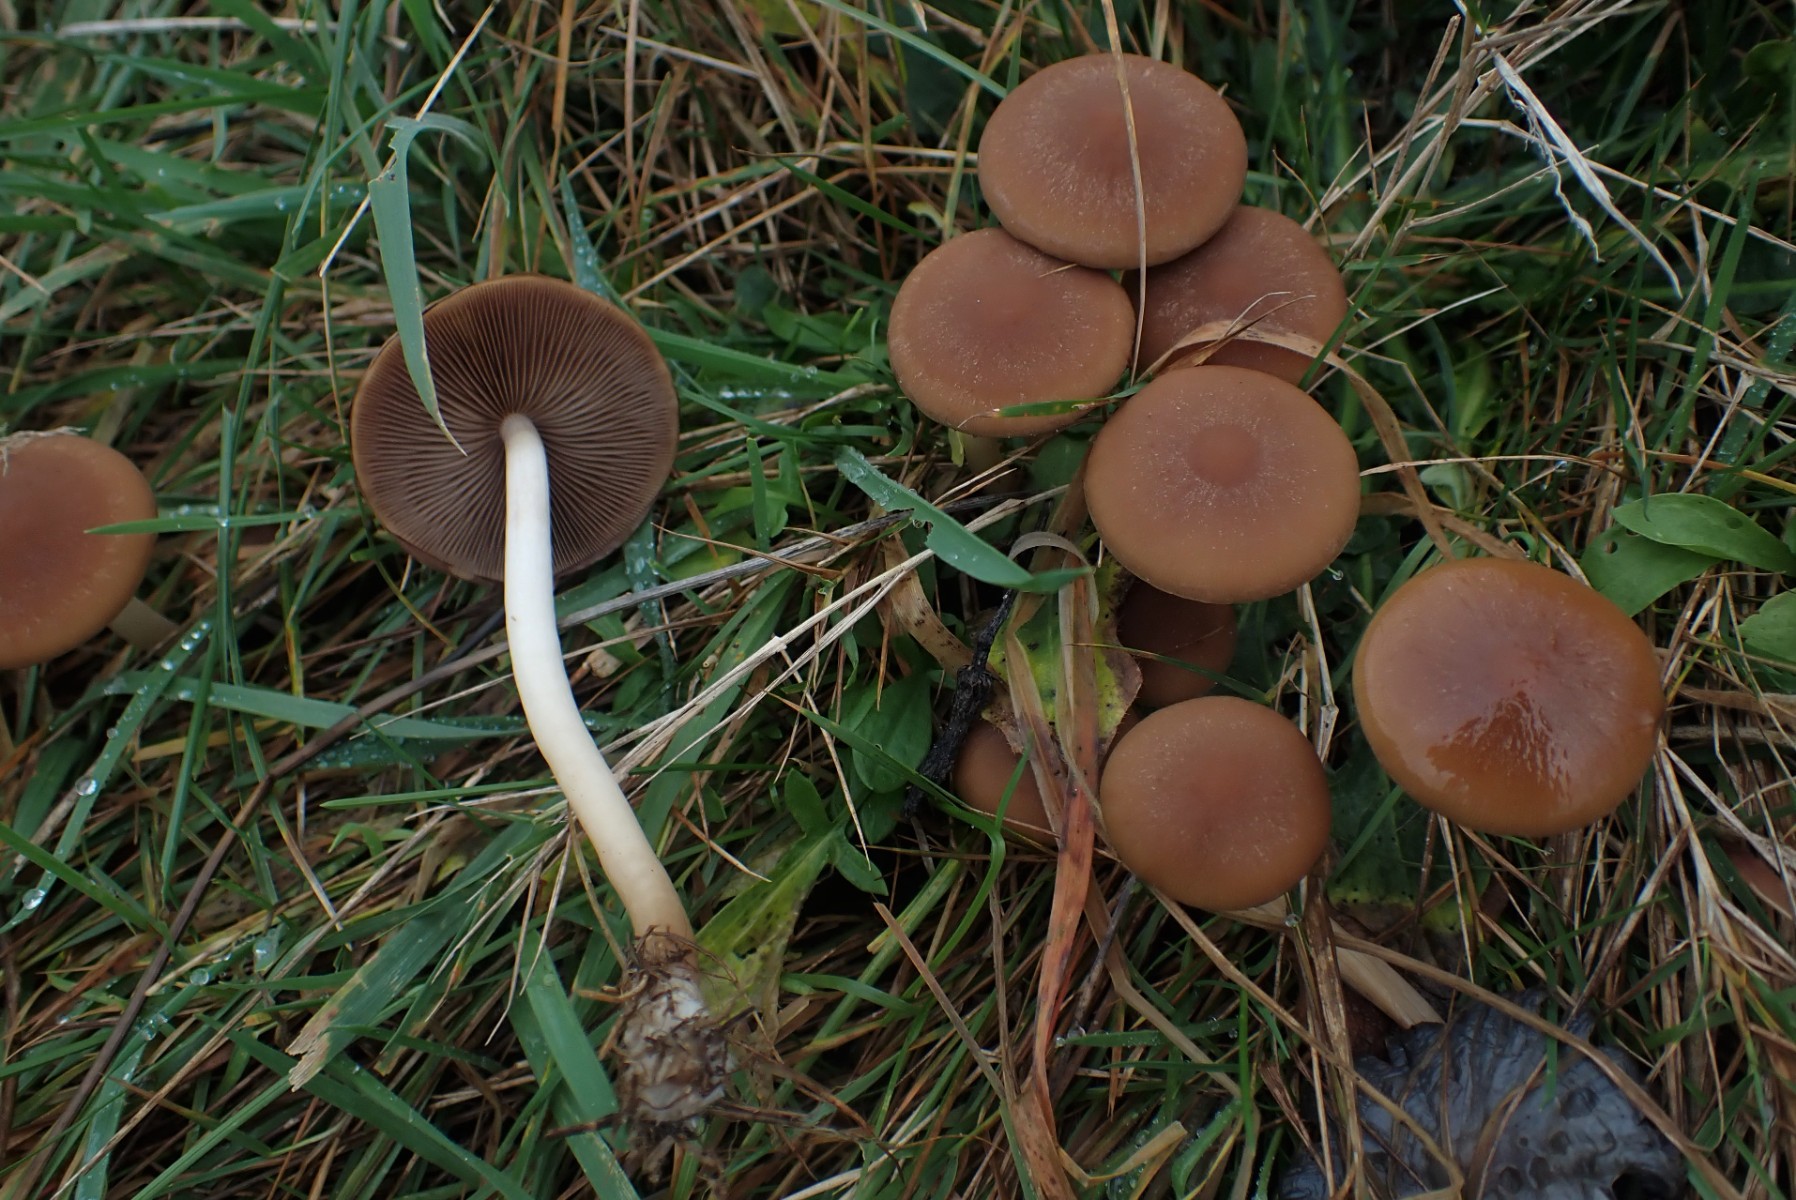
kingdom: Fungi
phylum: Basidiomycota
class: Agaricomycetes
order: Agaricales
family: Psathyrellaceae
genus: Psathyrella
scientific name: Psathyrella piluliformis
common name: lysstokket mørkhat
